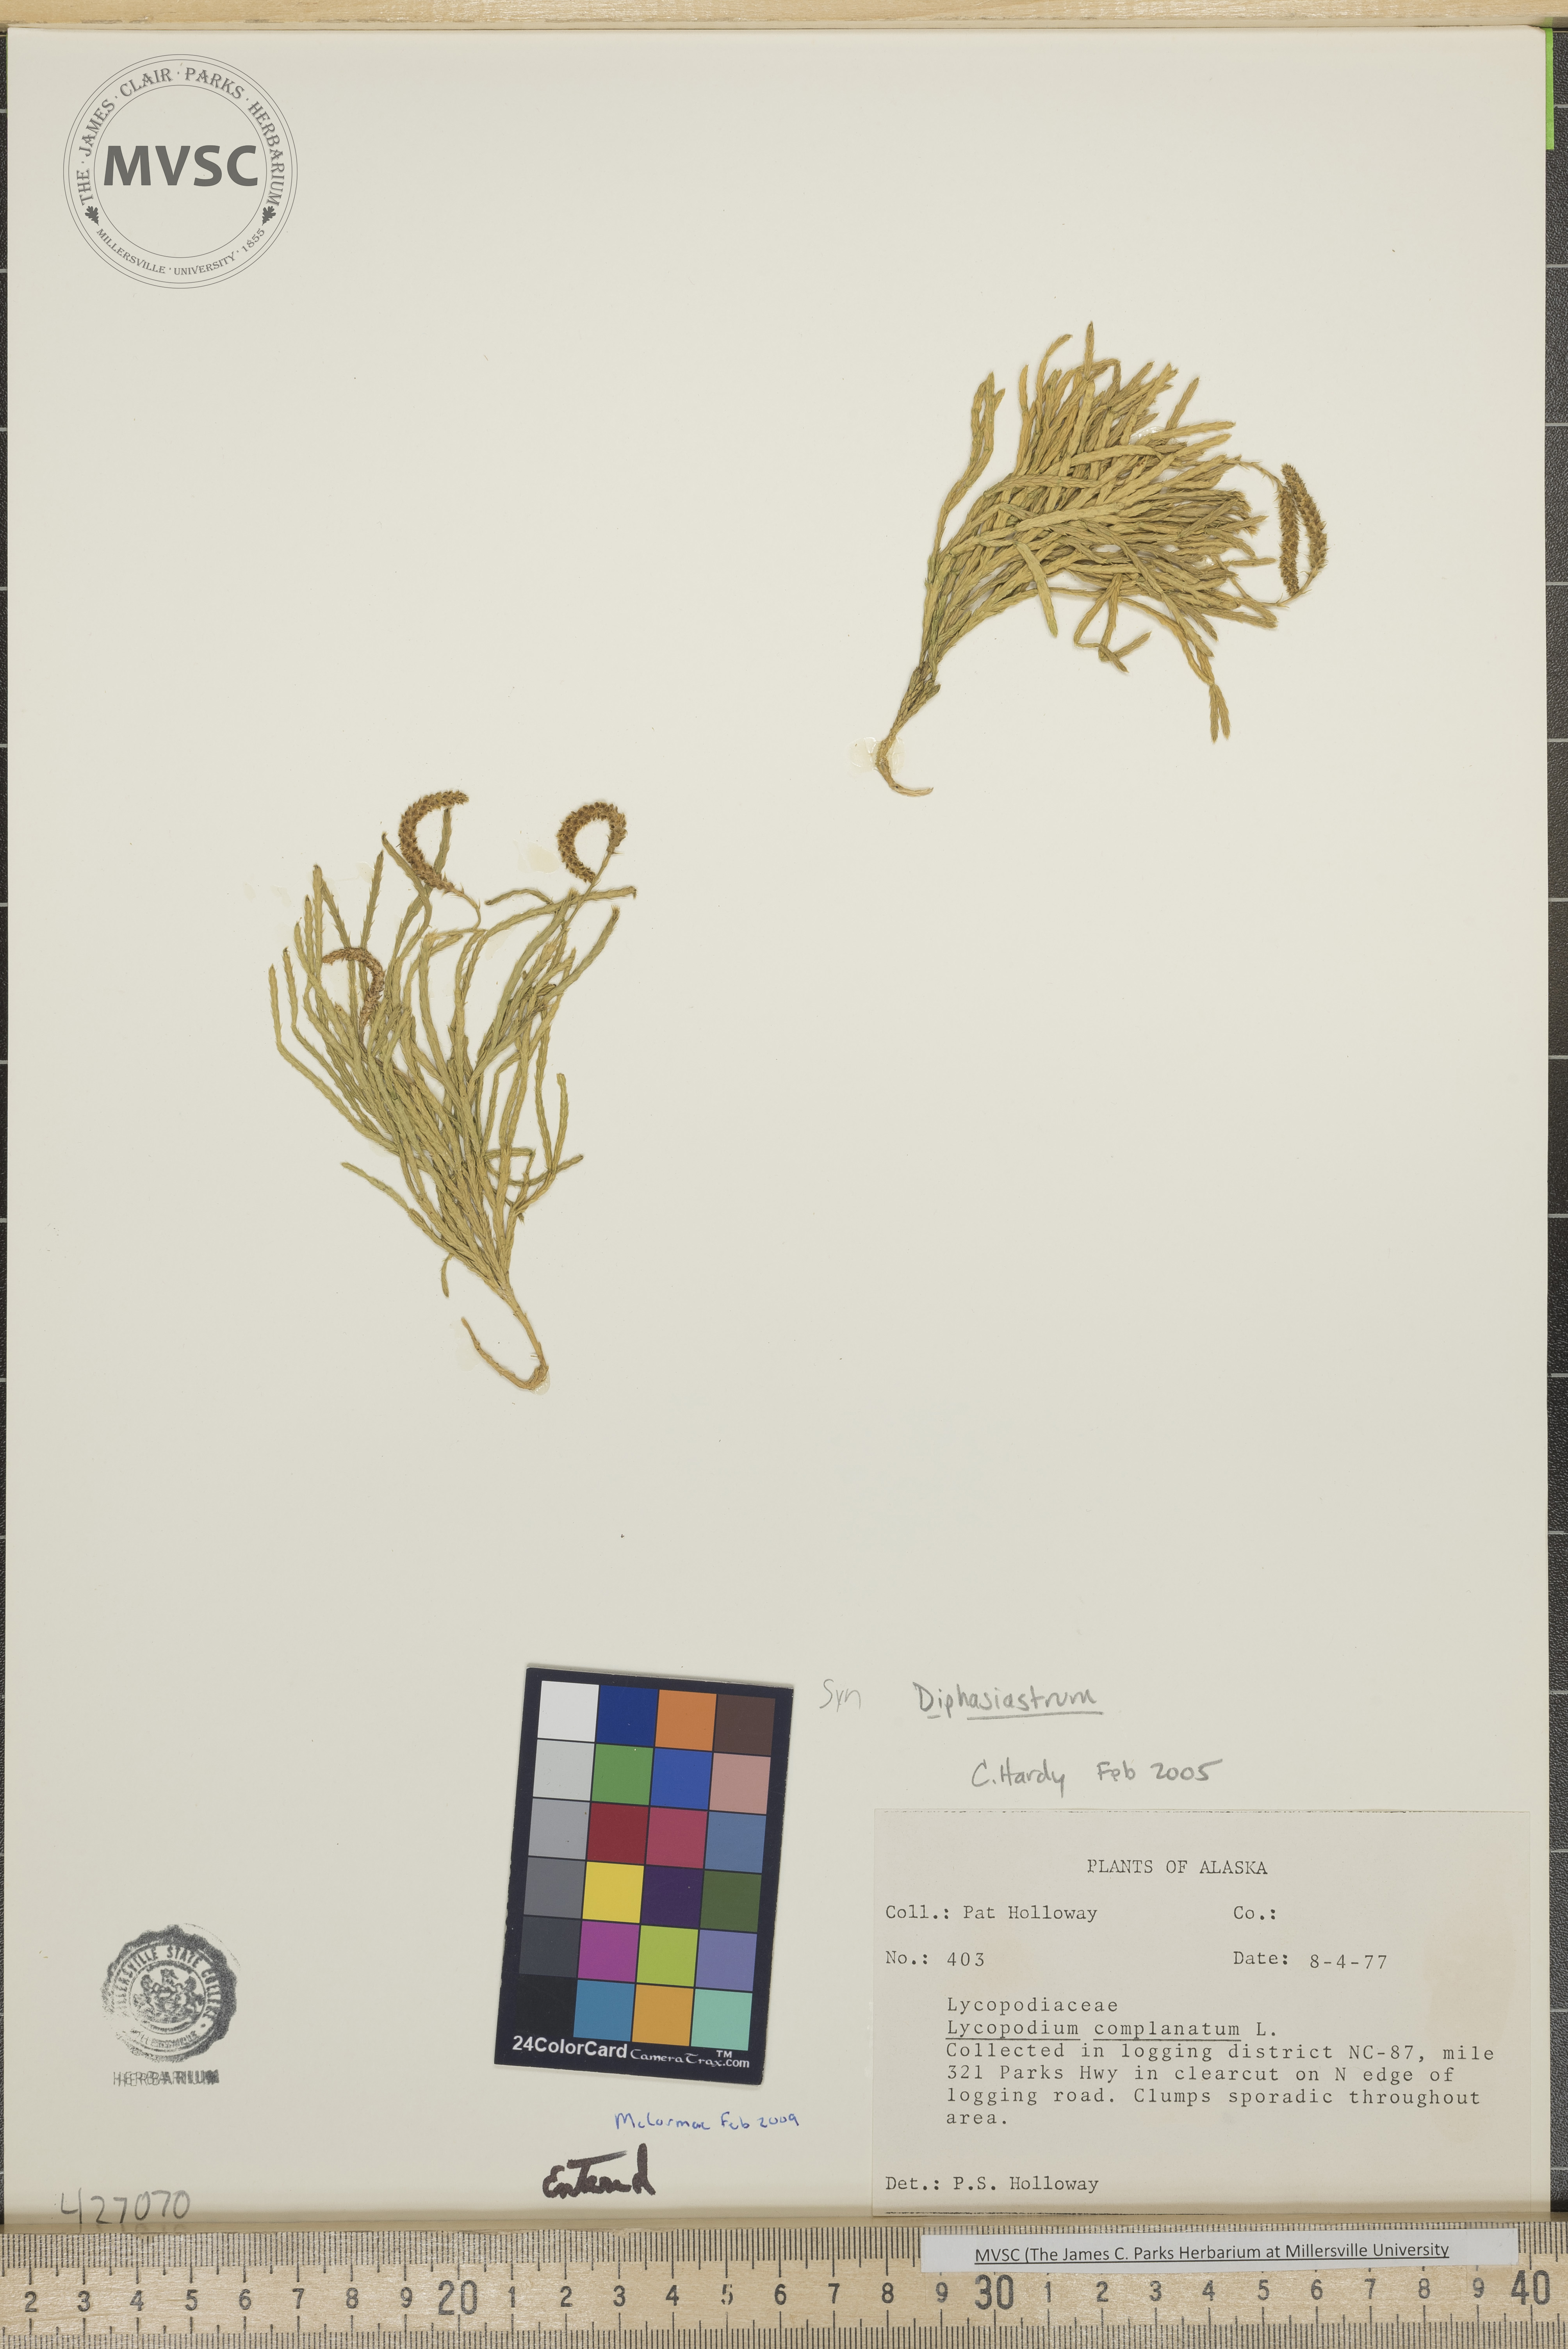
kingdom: Plantae
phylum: Tracheophyta
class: Lycopodiopsida
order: Lycopodiales
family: Lycopodiaceae
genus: Diphasiastrum
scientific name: Diphasiastrum complanatum
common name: Northern running-pine
